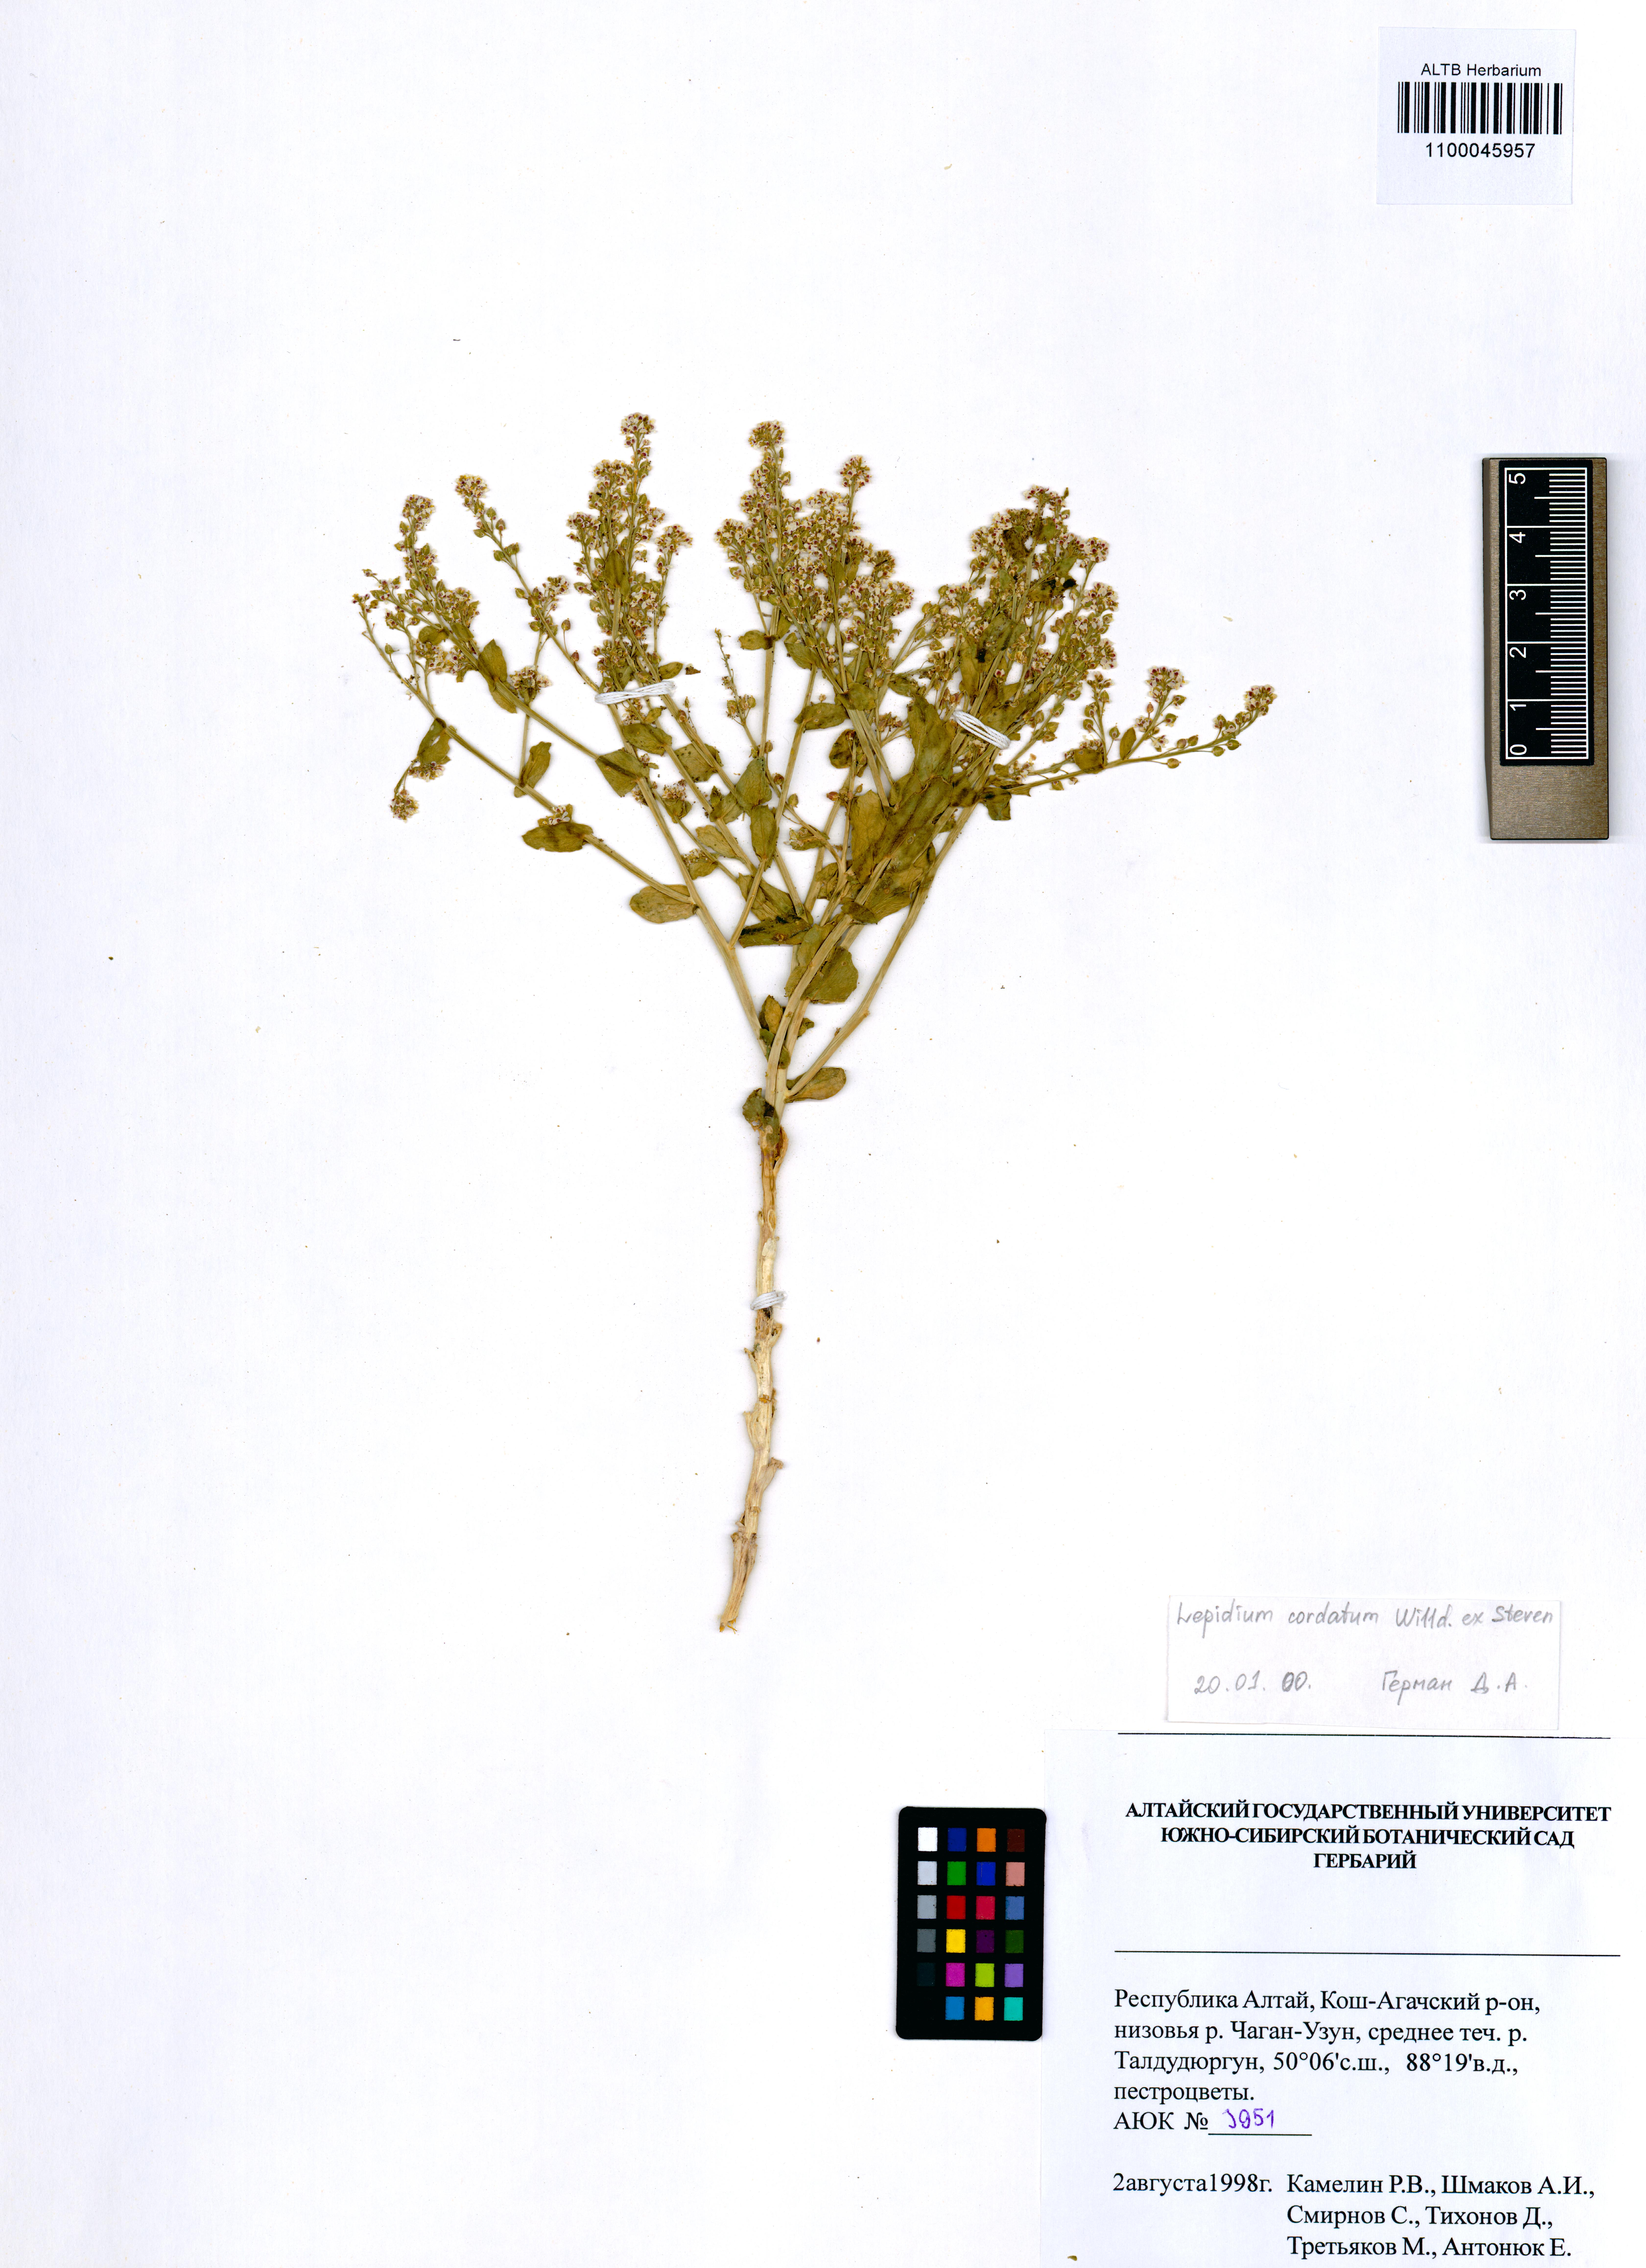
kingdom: Plantae
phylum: Tracheophyta
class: Magnoliopsida
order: Brassicales
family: Brassicaceae
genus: Lepidium
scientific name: Lepidium cordatum
